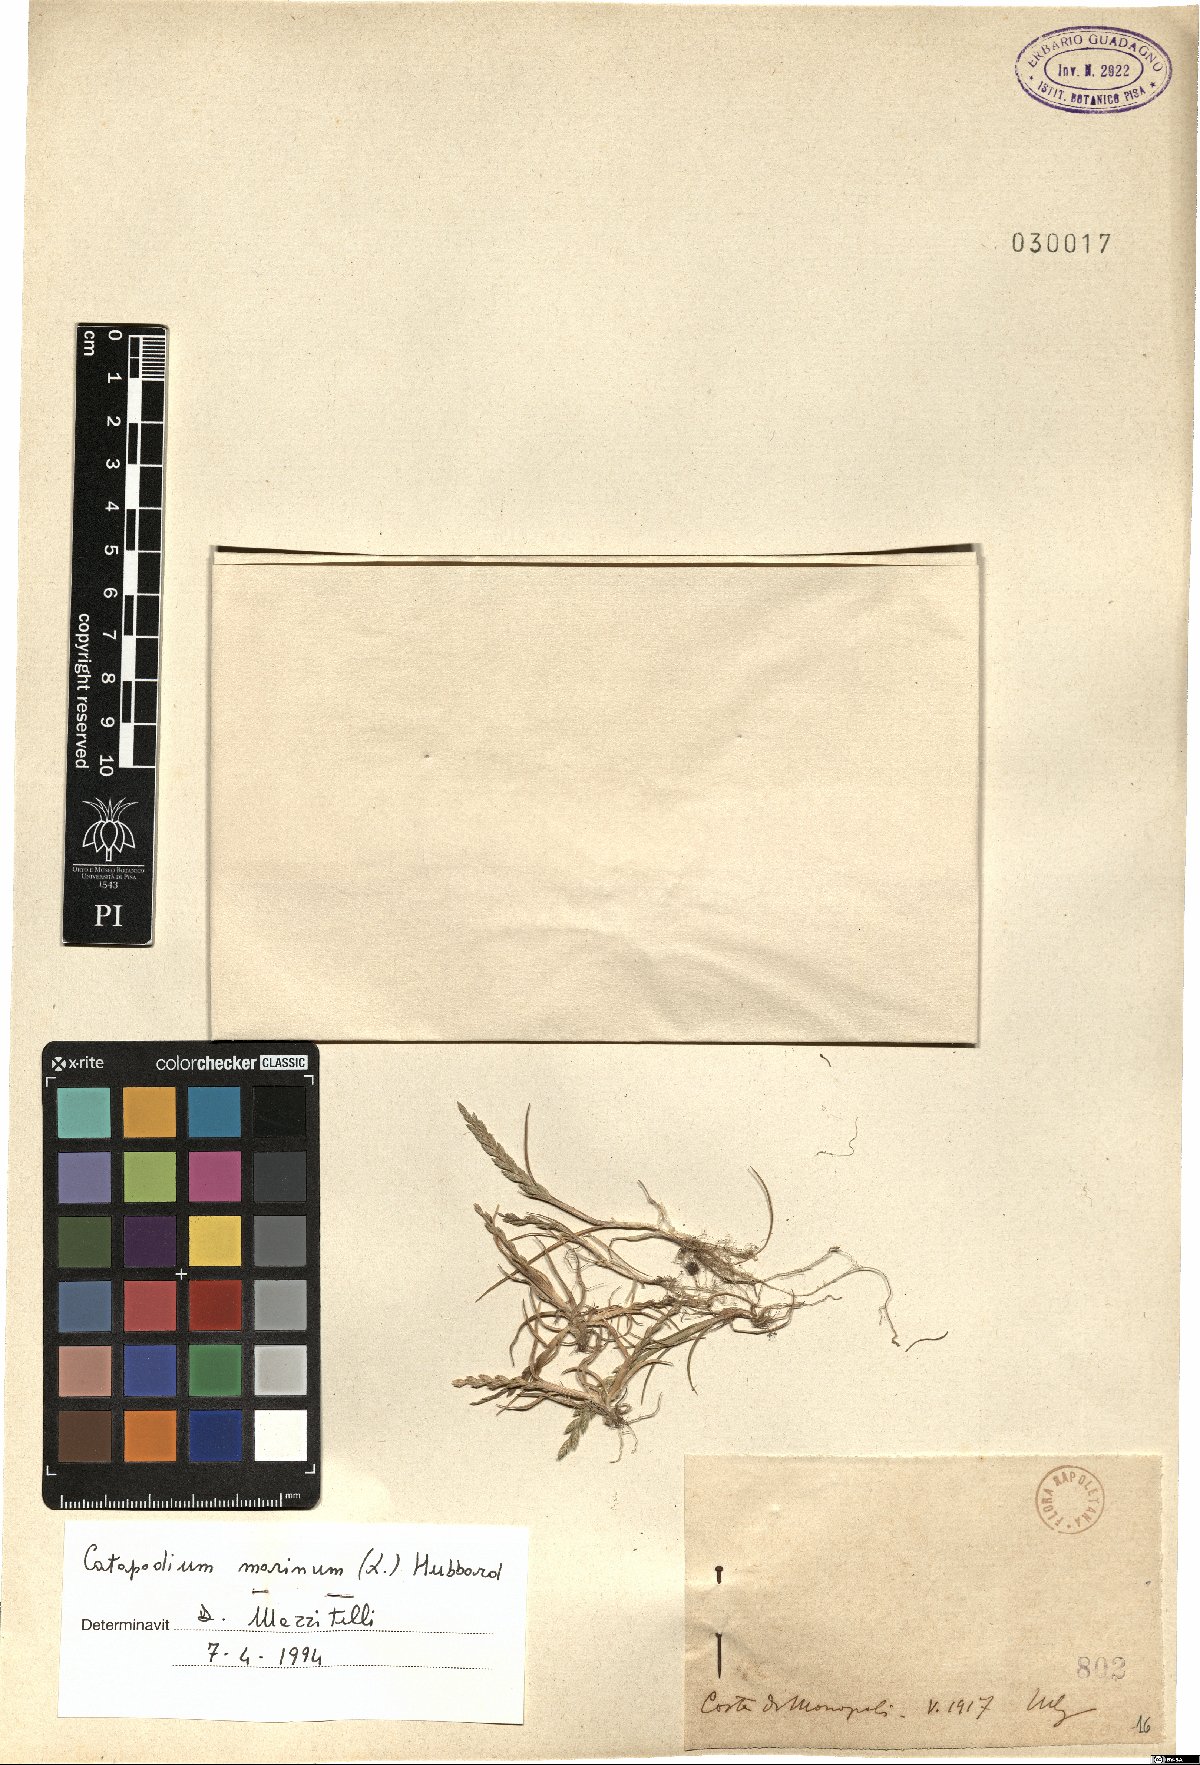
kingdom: Plantae
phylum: Tracheophyta
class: Liliopsida
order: Poales
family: Poaceae
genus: Catapodium
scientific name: Catapodium marinum
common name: Sea fern-grass
